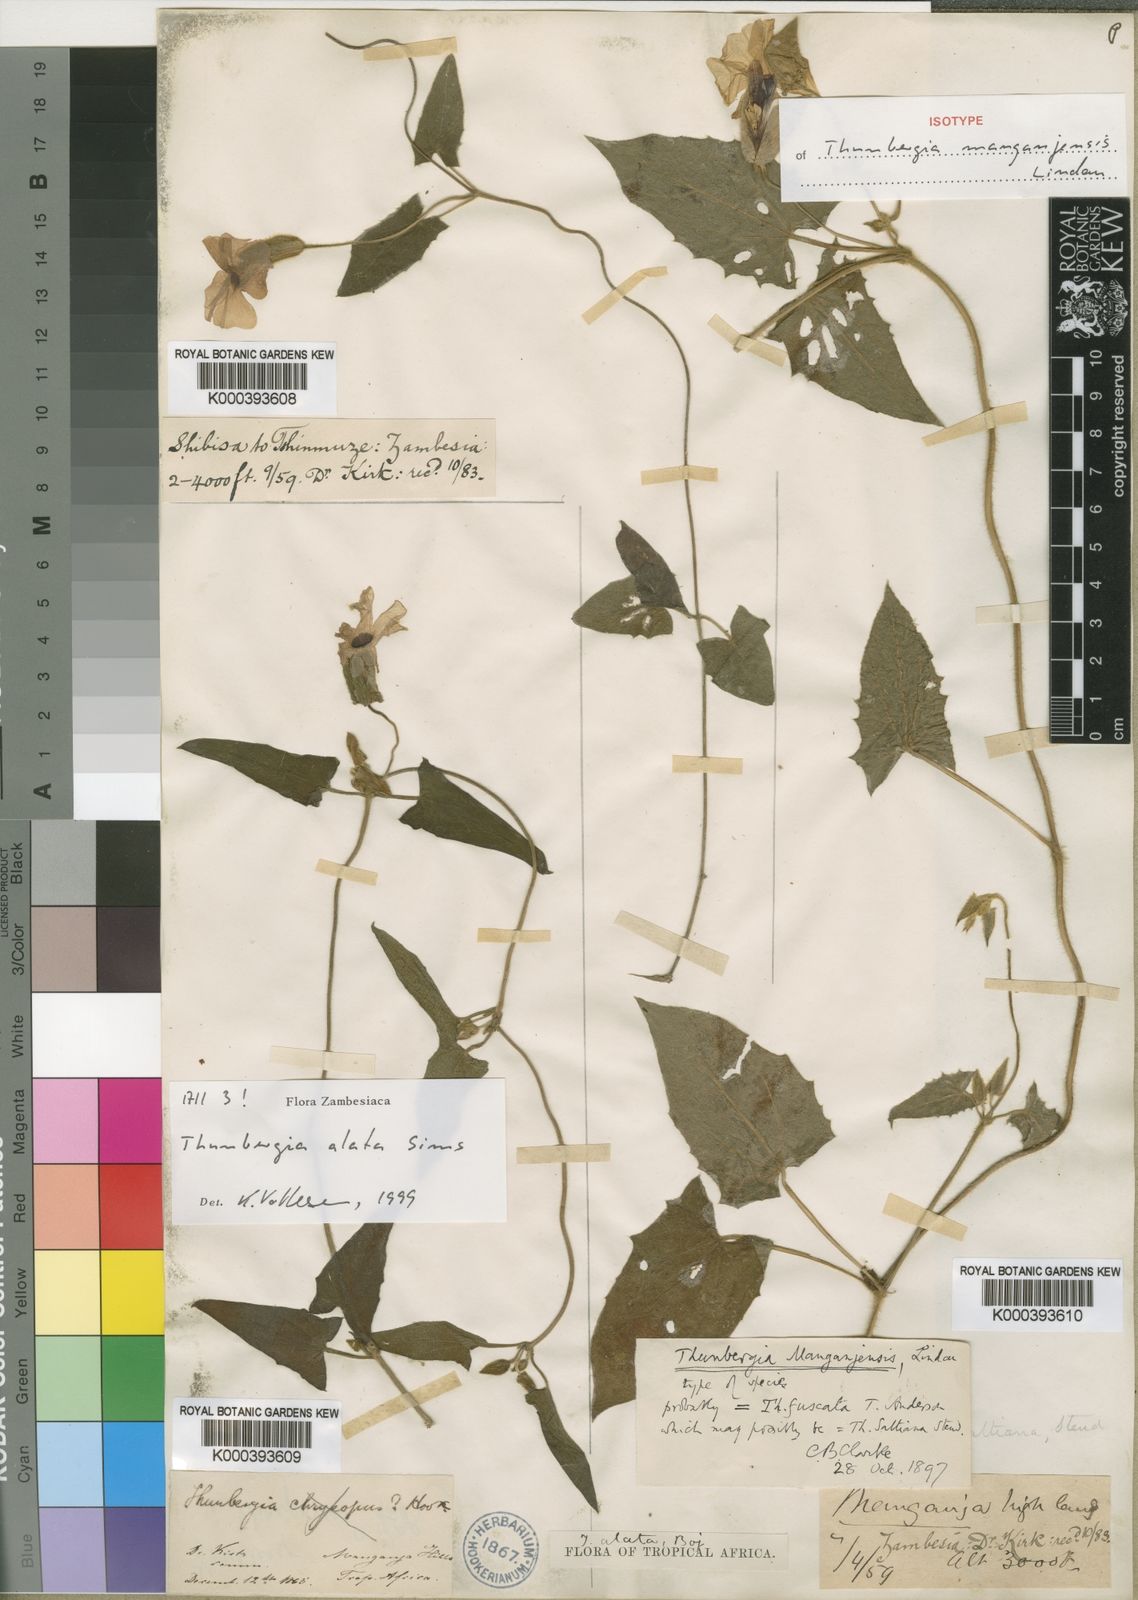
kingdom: Plantae
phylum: Tracheophyta
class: Magnoliopsida
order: Lamiales
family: Acanthaceae
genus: Thunbergia
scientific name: Thunbergia alata
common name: Blackeyed susan vine
